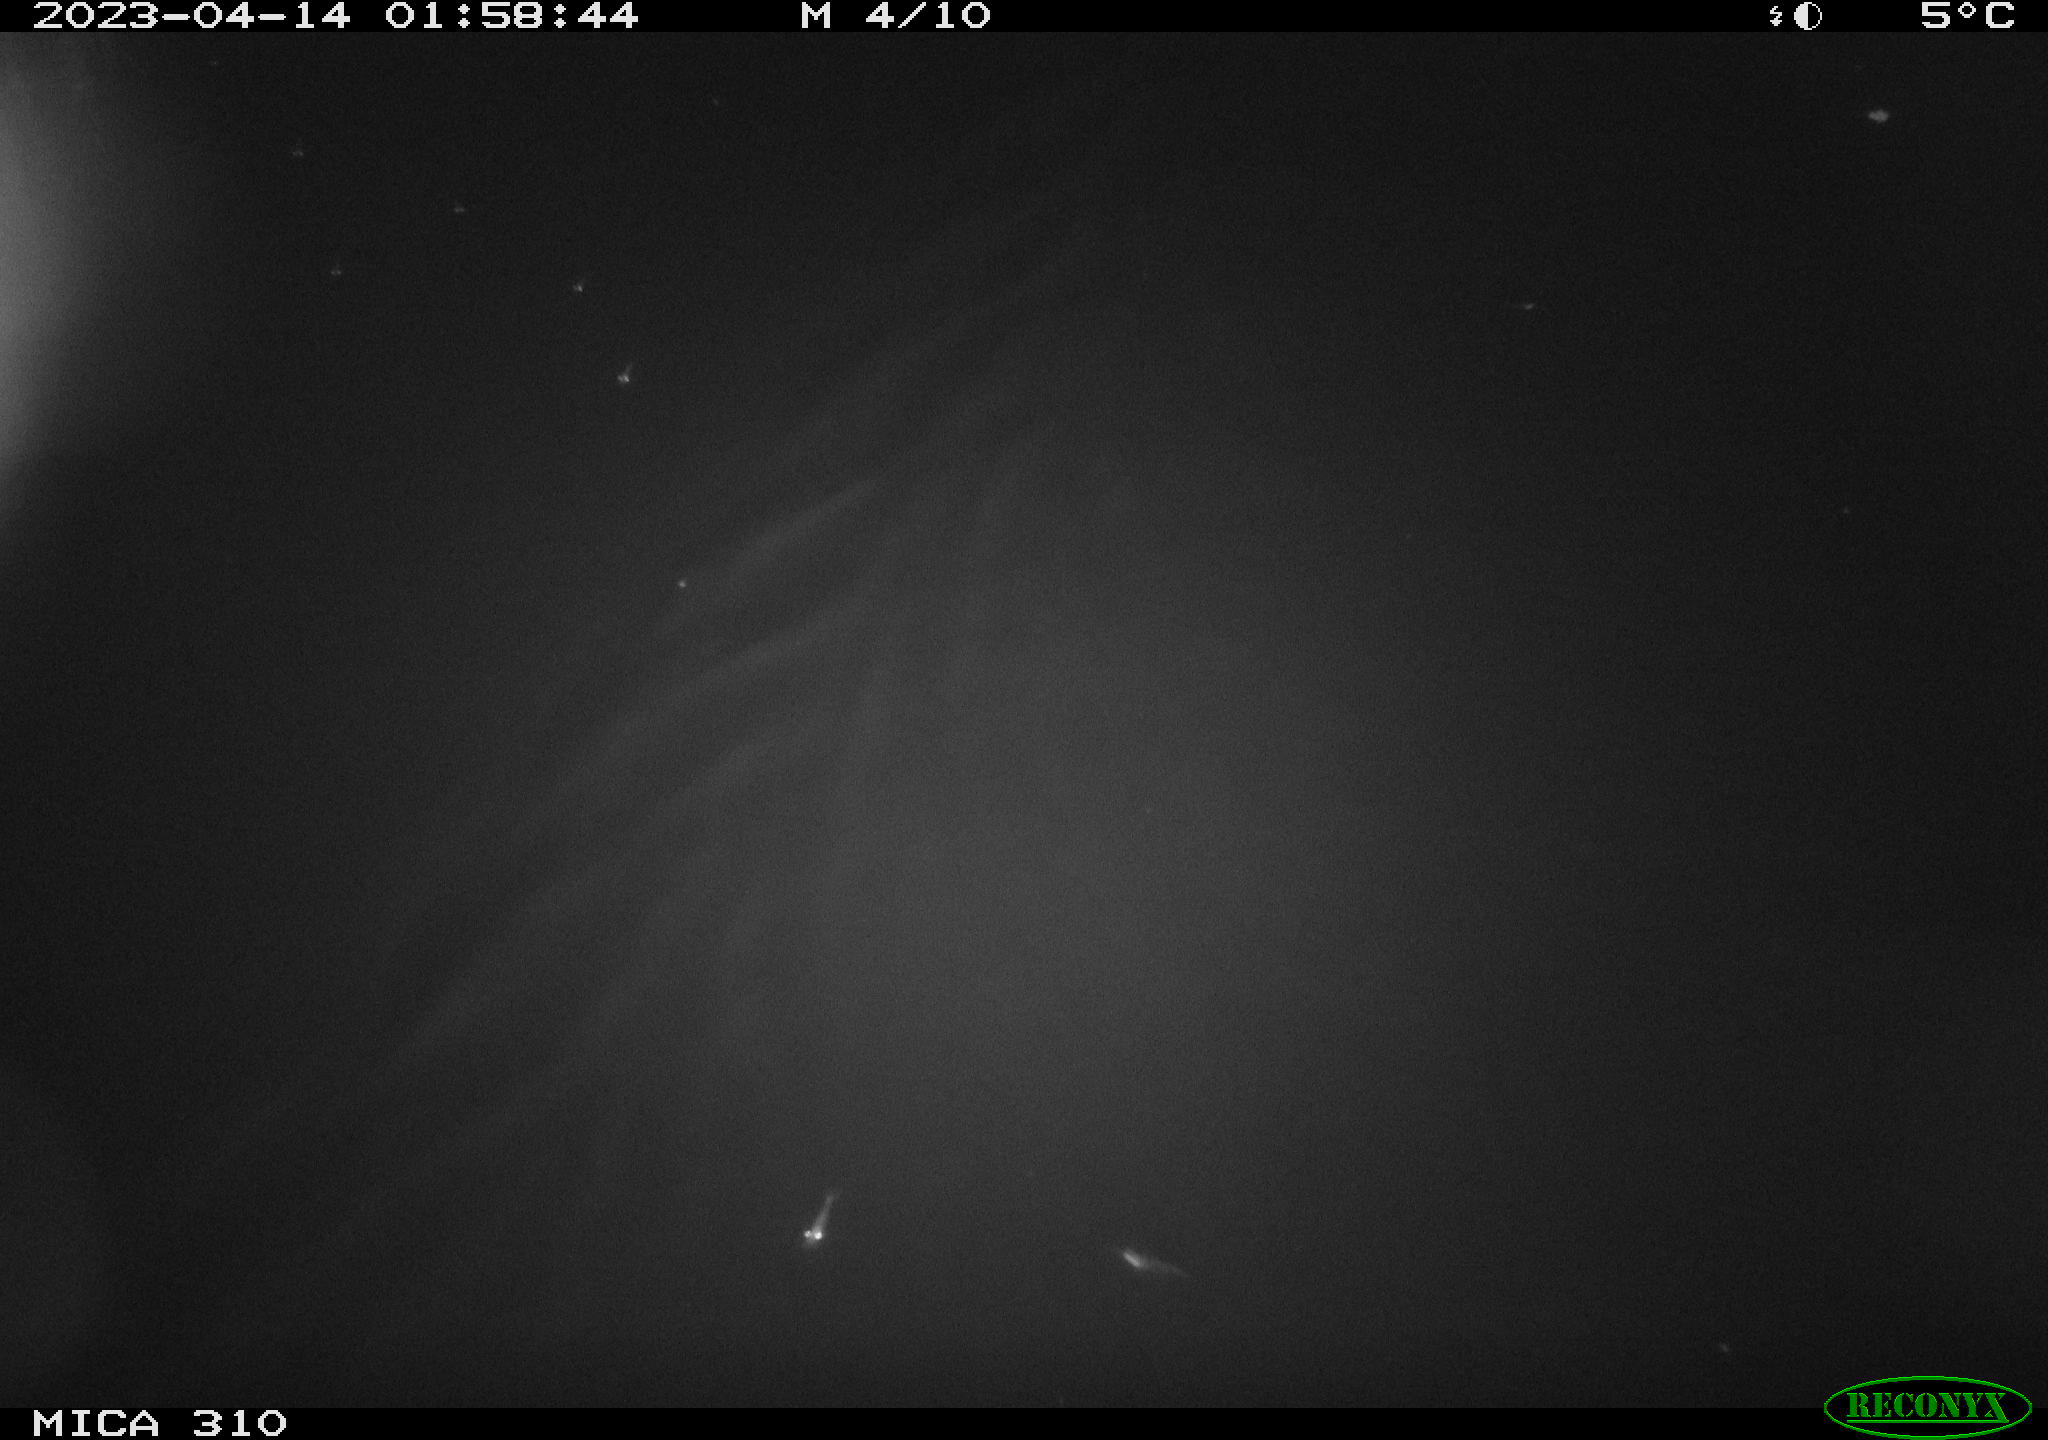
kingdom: Animalia
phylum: Chordata
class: Mammalia
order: Rodentia
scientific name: Rodentia
